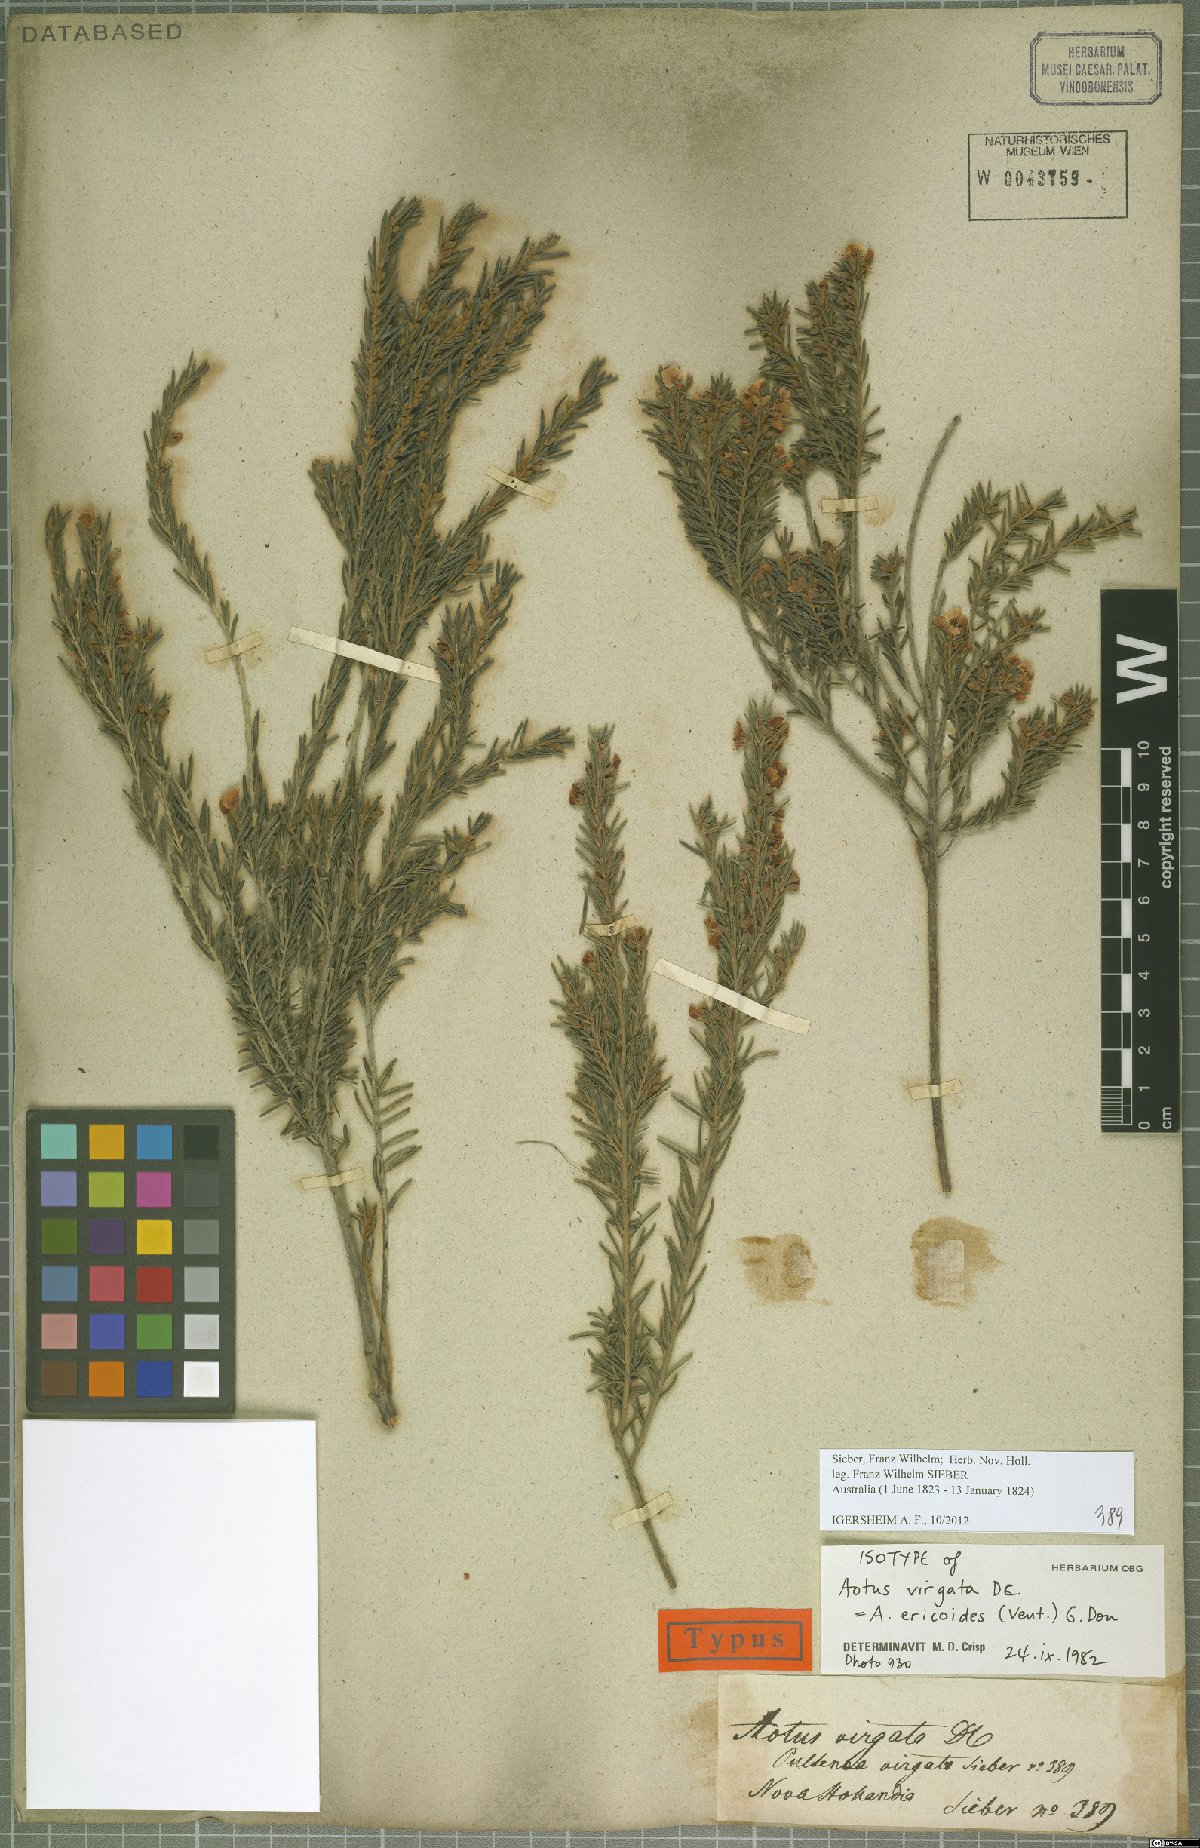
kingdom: Plantae
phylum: Tracheophyta
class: Magnoliopsida
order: Fabales
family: Fabaceae
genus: Aotus
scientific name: Aotus ericoides
